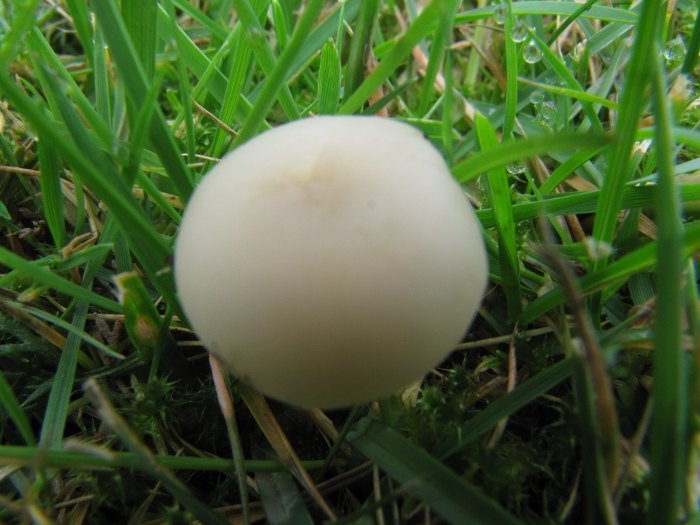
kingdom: Fungi
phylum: Basidiomycota
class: Agaricomycetes
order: Agaricales
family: Hygrophoraceae
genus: Cuphophyllus
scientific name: Cuphophyllus virgineus
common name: snehvid vokshat
